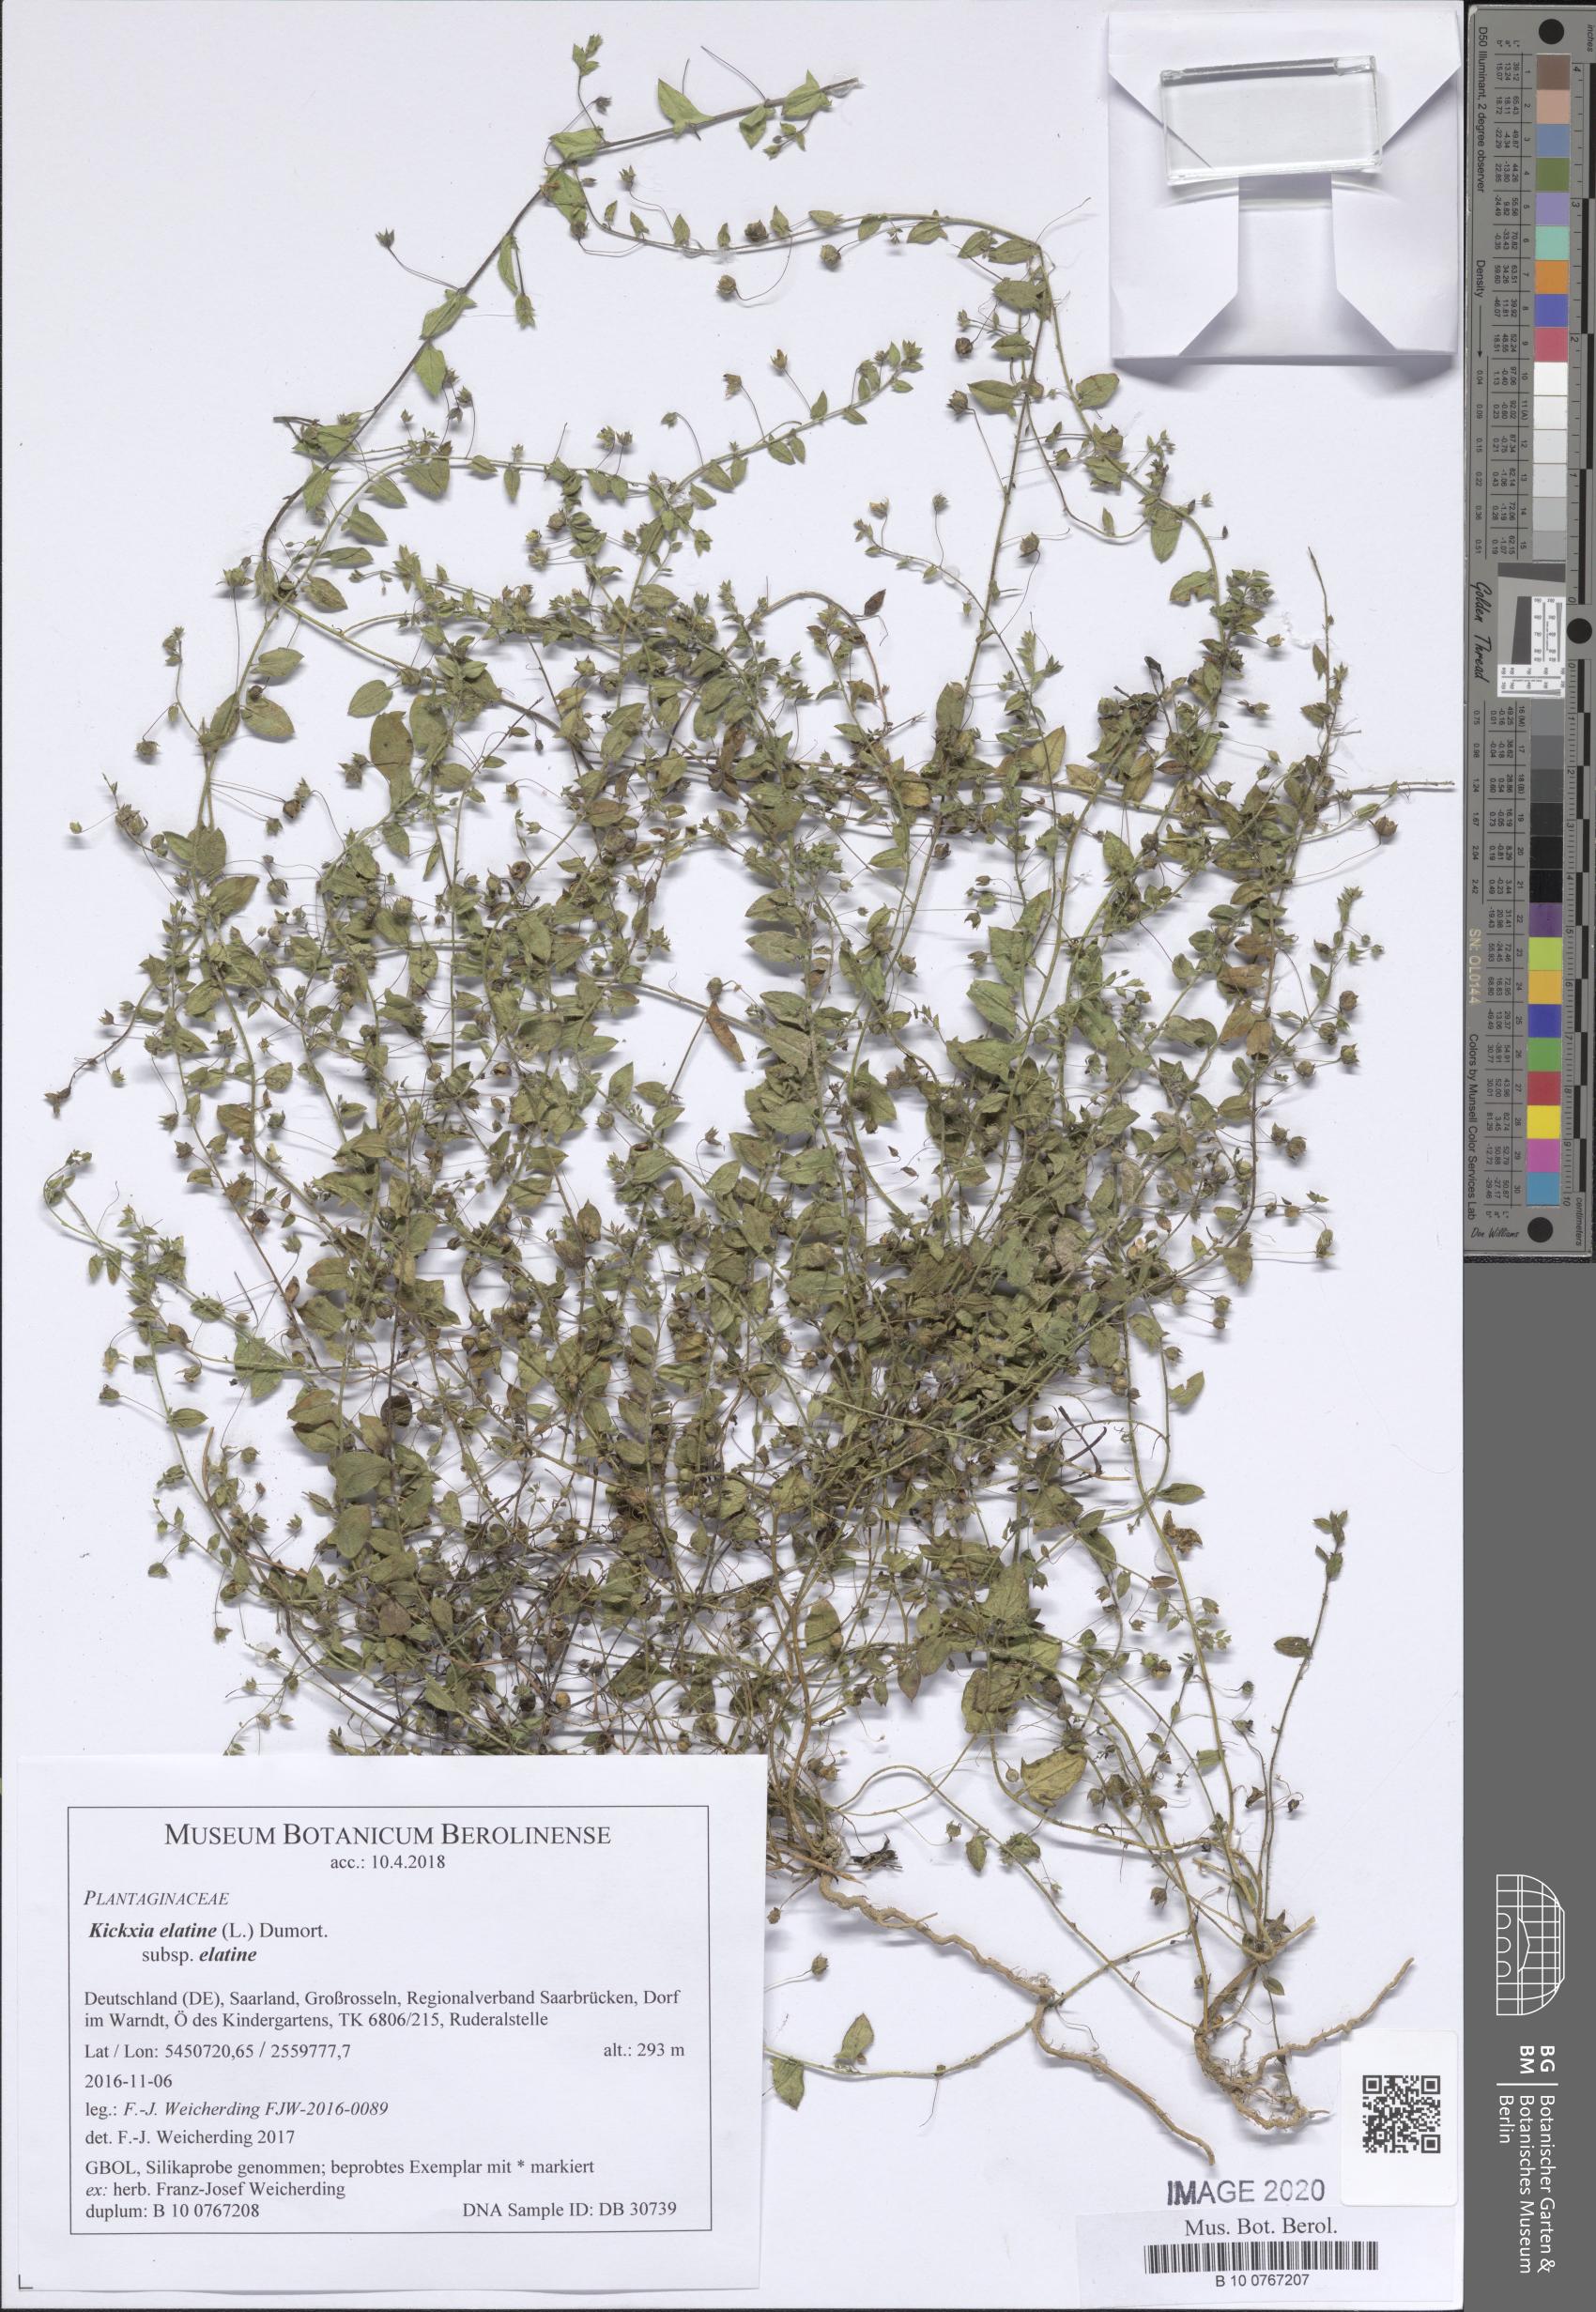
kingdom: Plantae
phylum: Tracheophyta
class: Magnoliopsida
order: Lamiales
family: Plantaginaceae
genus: Kickxia
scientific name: Kickxia elatine
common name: Sharp-leaved fluellen
